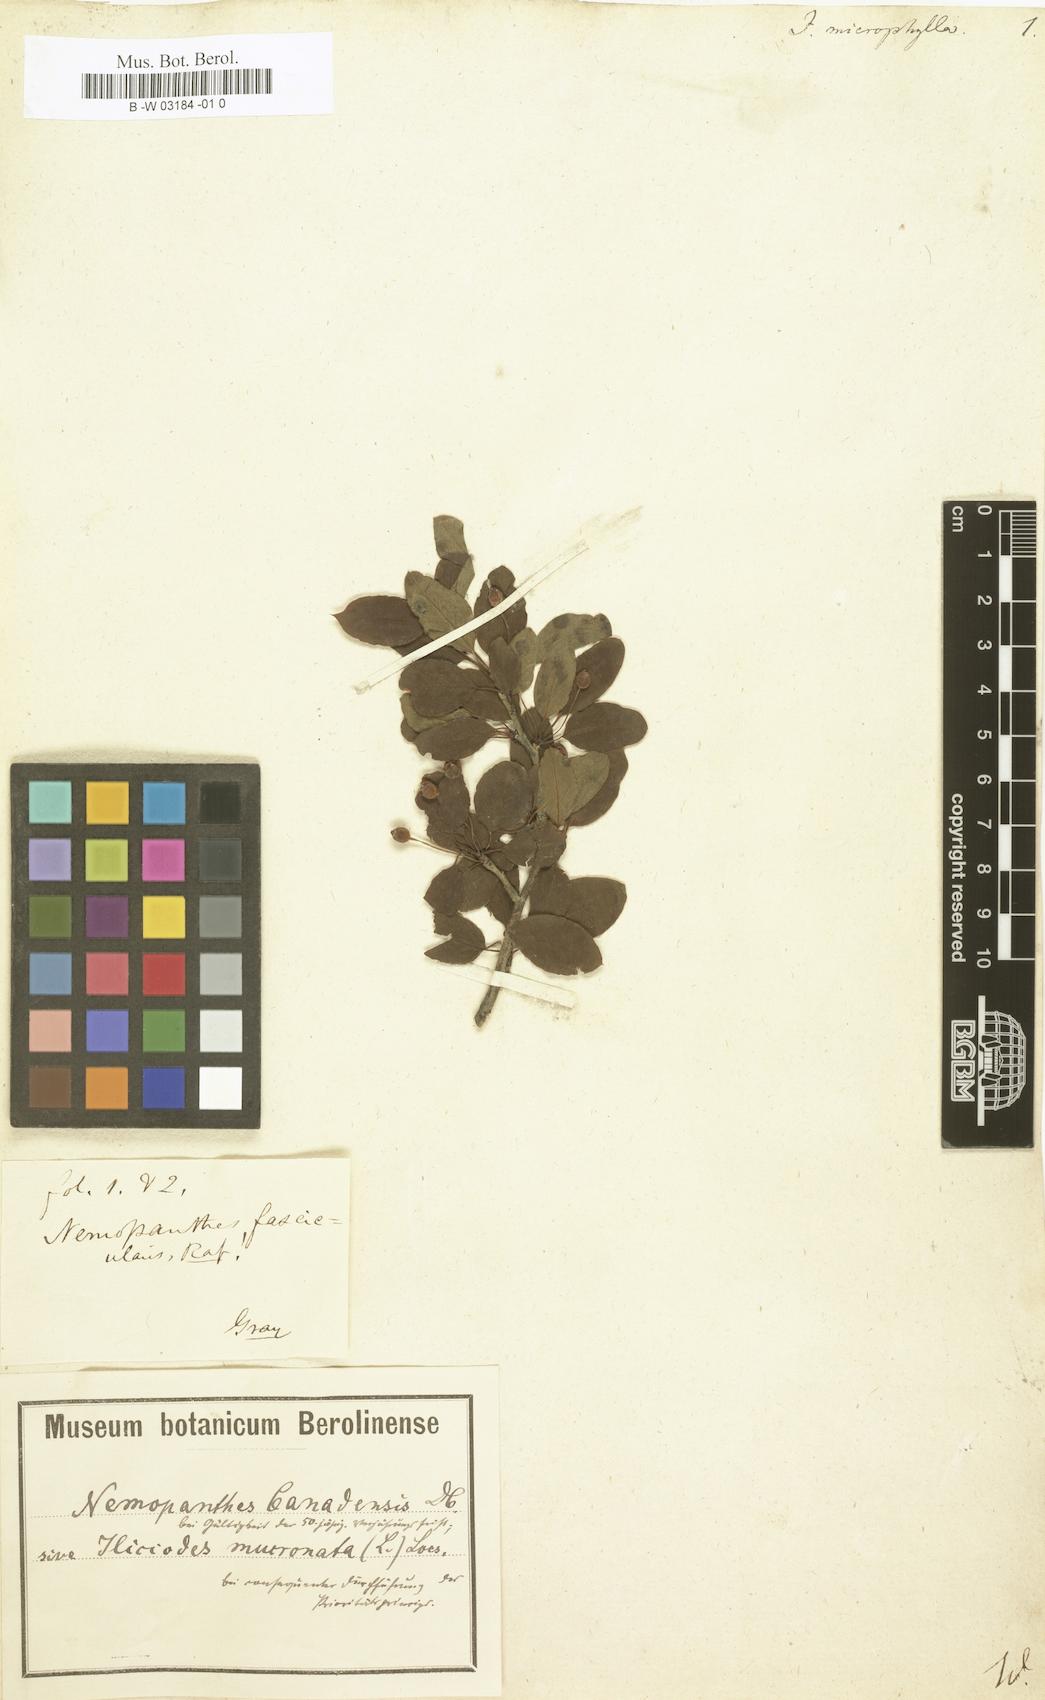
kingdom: Plantae
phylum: Tracheophyta
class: Magnoliopsida
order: Aquifoliales
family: Aquifoliaceae
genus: Ilex
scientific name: Ilex microphylla
